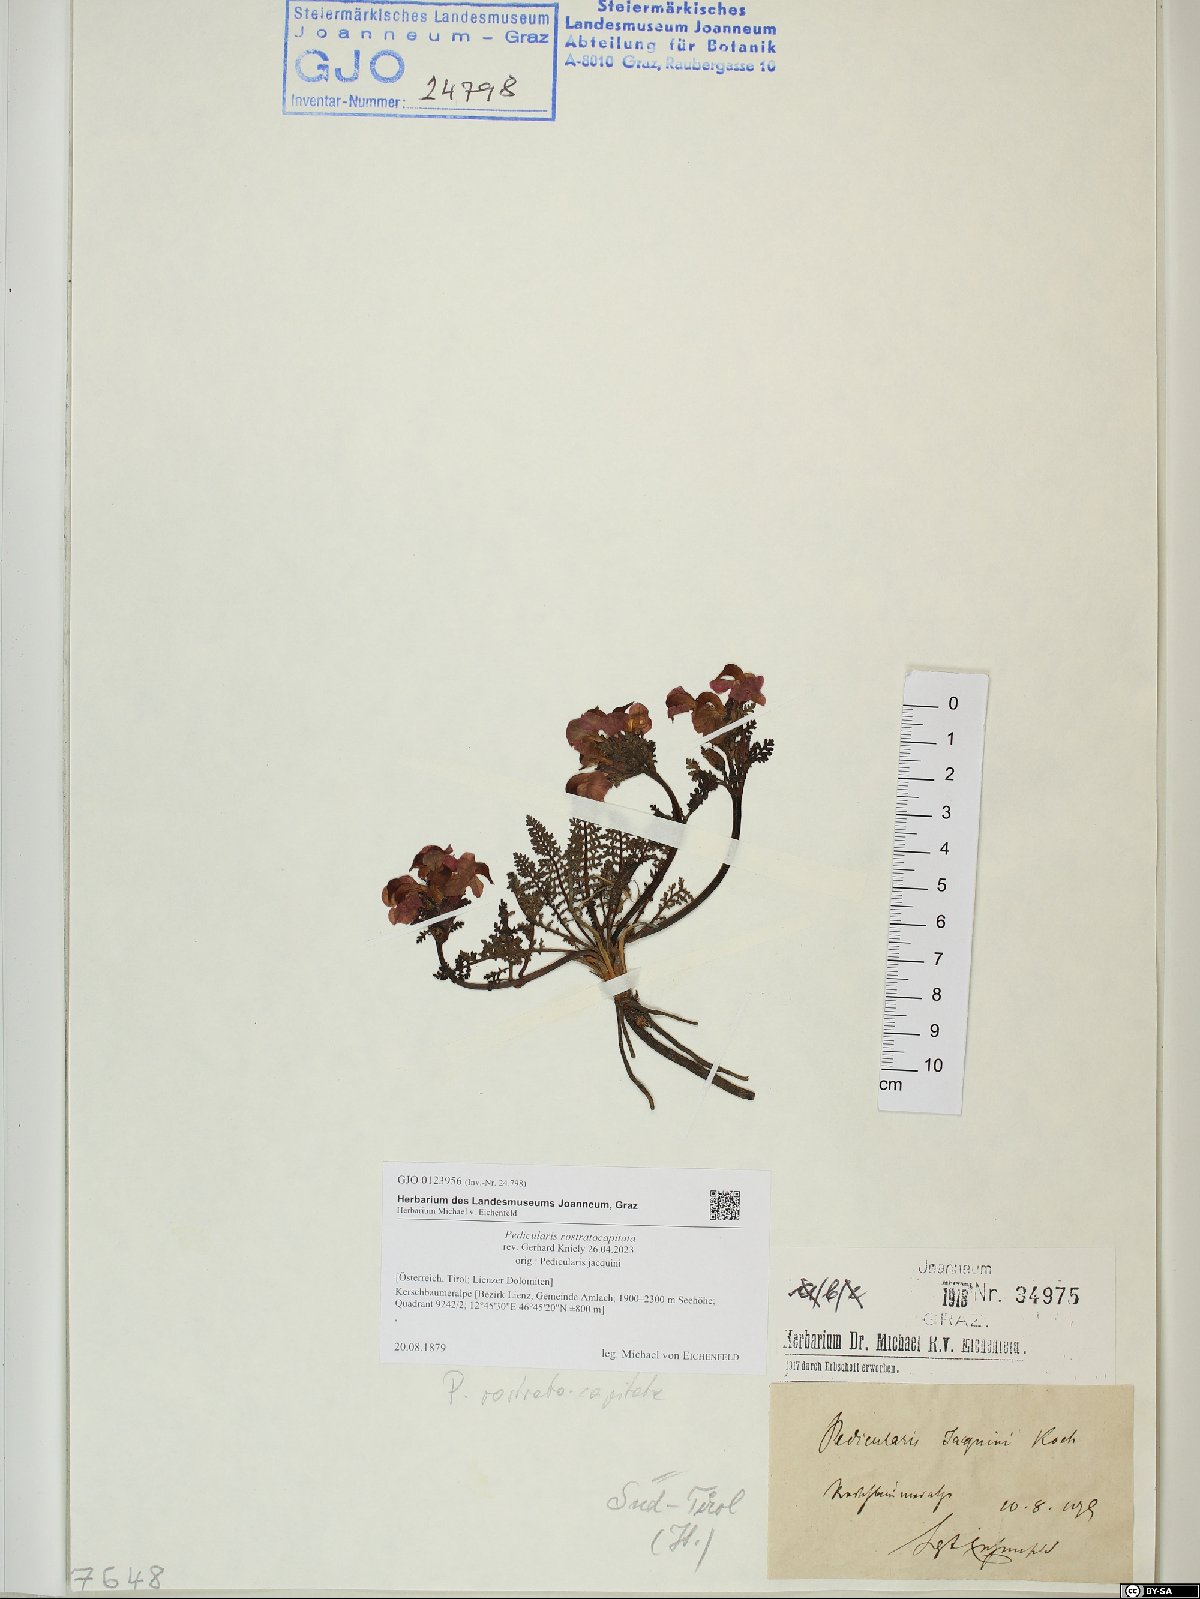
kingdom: Plantae
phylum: Tracheophyta
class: Magnoliopsida
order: Lamiales
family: Orobanchaceae
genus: Pedicularis
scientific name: Pedicularis rostratocapitata
